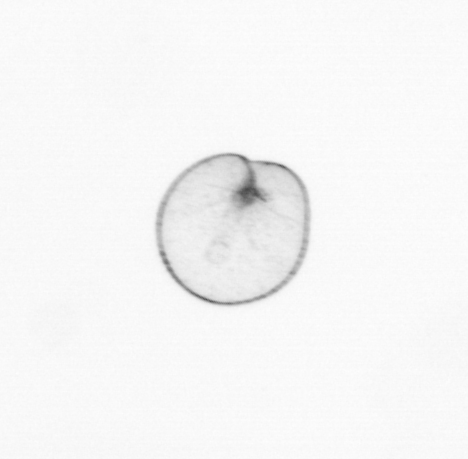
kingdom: Chromista
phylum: Myzozoa
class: Dinophyceae
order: Noctilucales
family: Noctilucaceae
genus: Noctiluca
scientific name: Noctiluca scintillans
